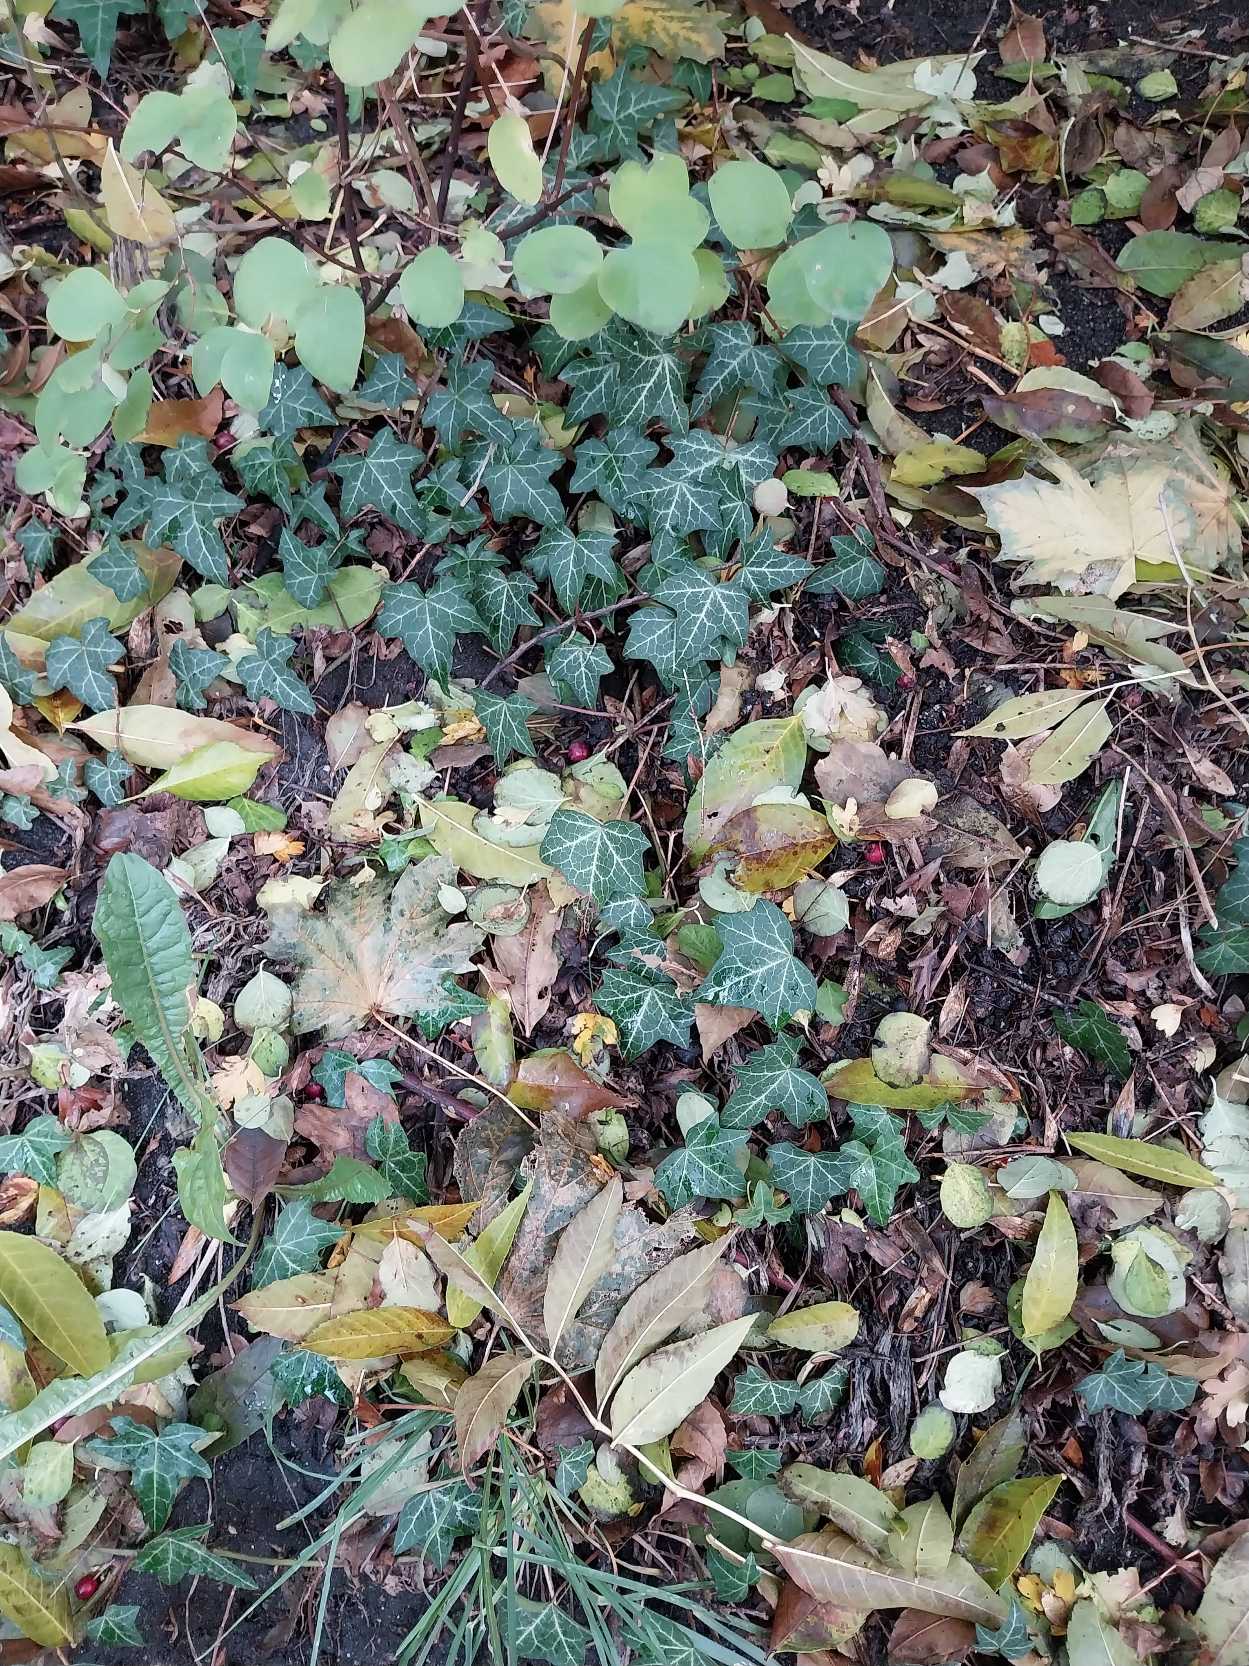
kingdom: Plantae
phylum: Tracheophyta
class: Magnoliopsida
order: Apiales
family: Araliaceae
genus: Hedera
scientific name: Hedera helix
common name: Vedbend
